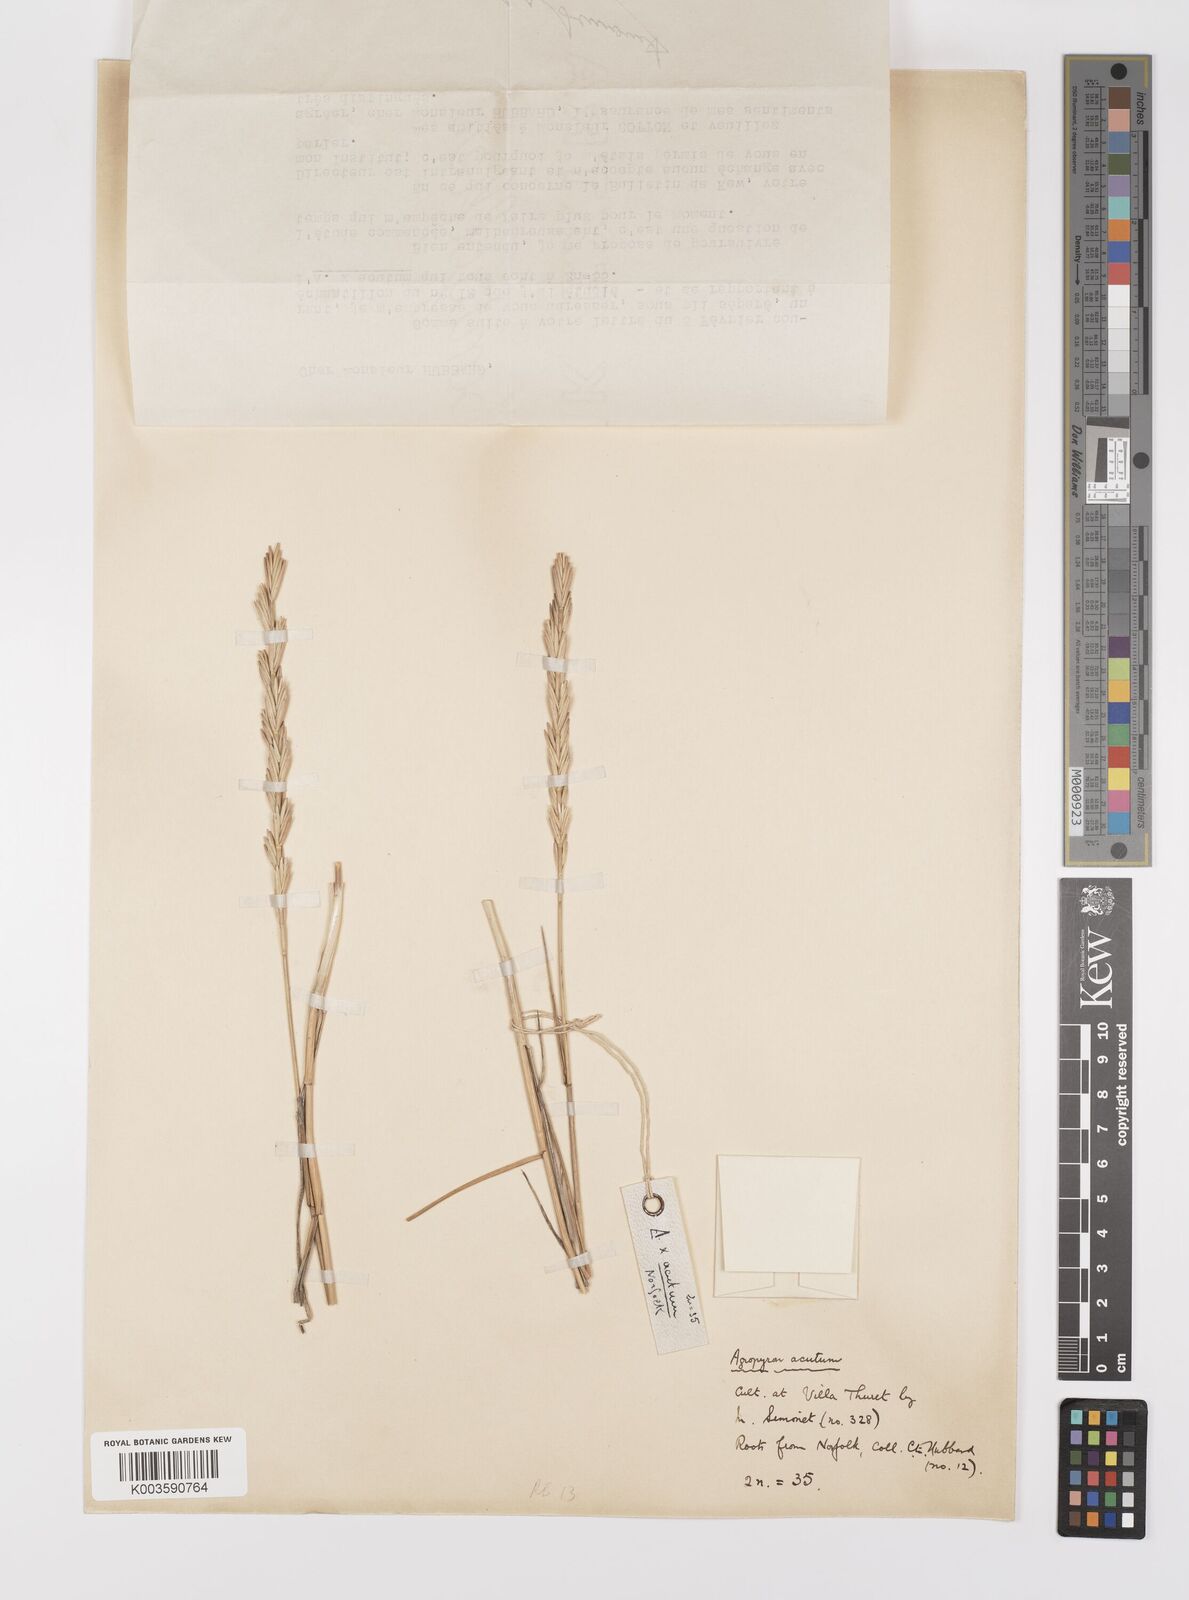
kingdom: Plantae
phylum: Tracheophyta
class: Liliopsida
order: Poales
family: Poaceae
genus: Elymus
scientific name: Elymus athericus
